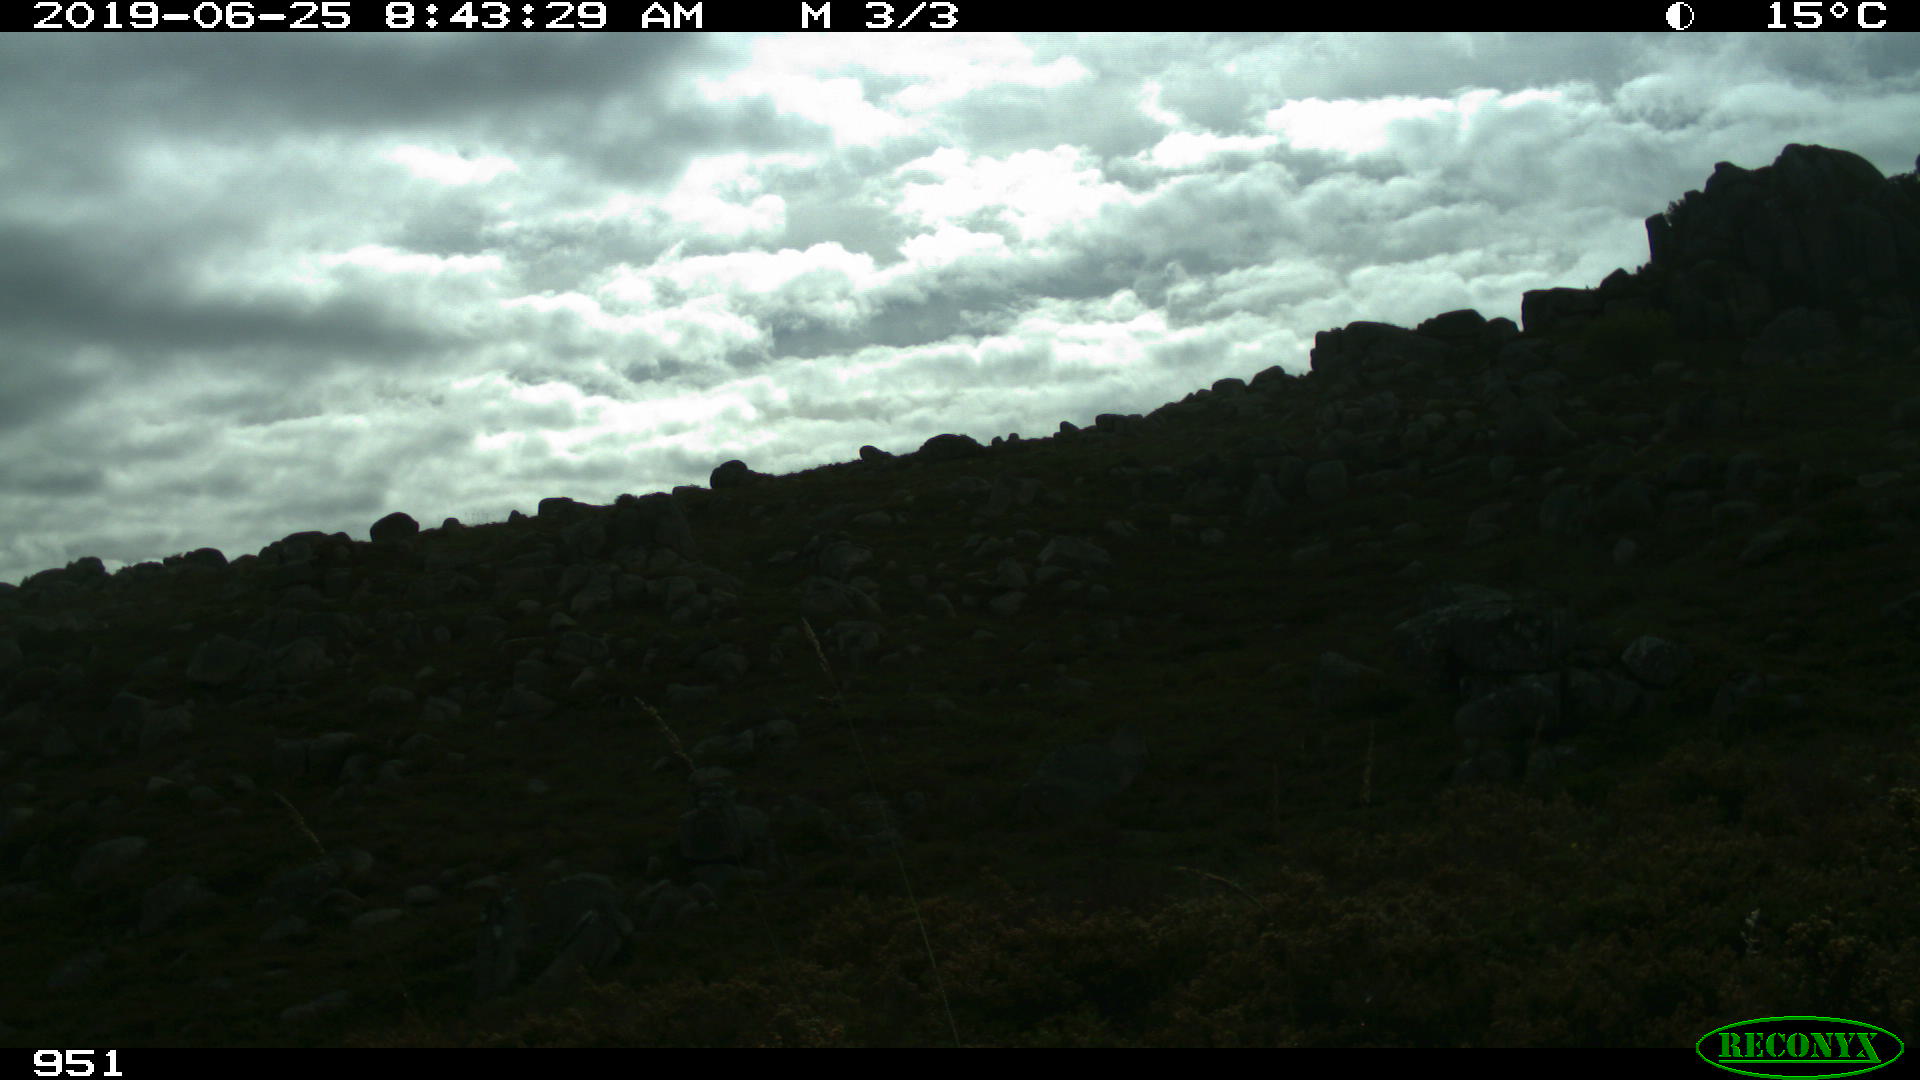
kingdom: Animalia
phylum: Chordata
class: Mammalia
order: Perissodactyla
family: Equidae
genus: Equus
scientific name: Equus caballus
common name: Horse
